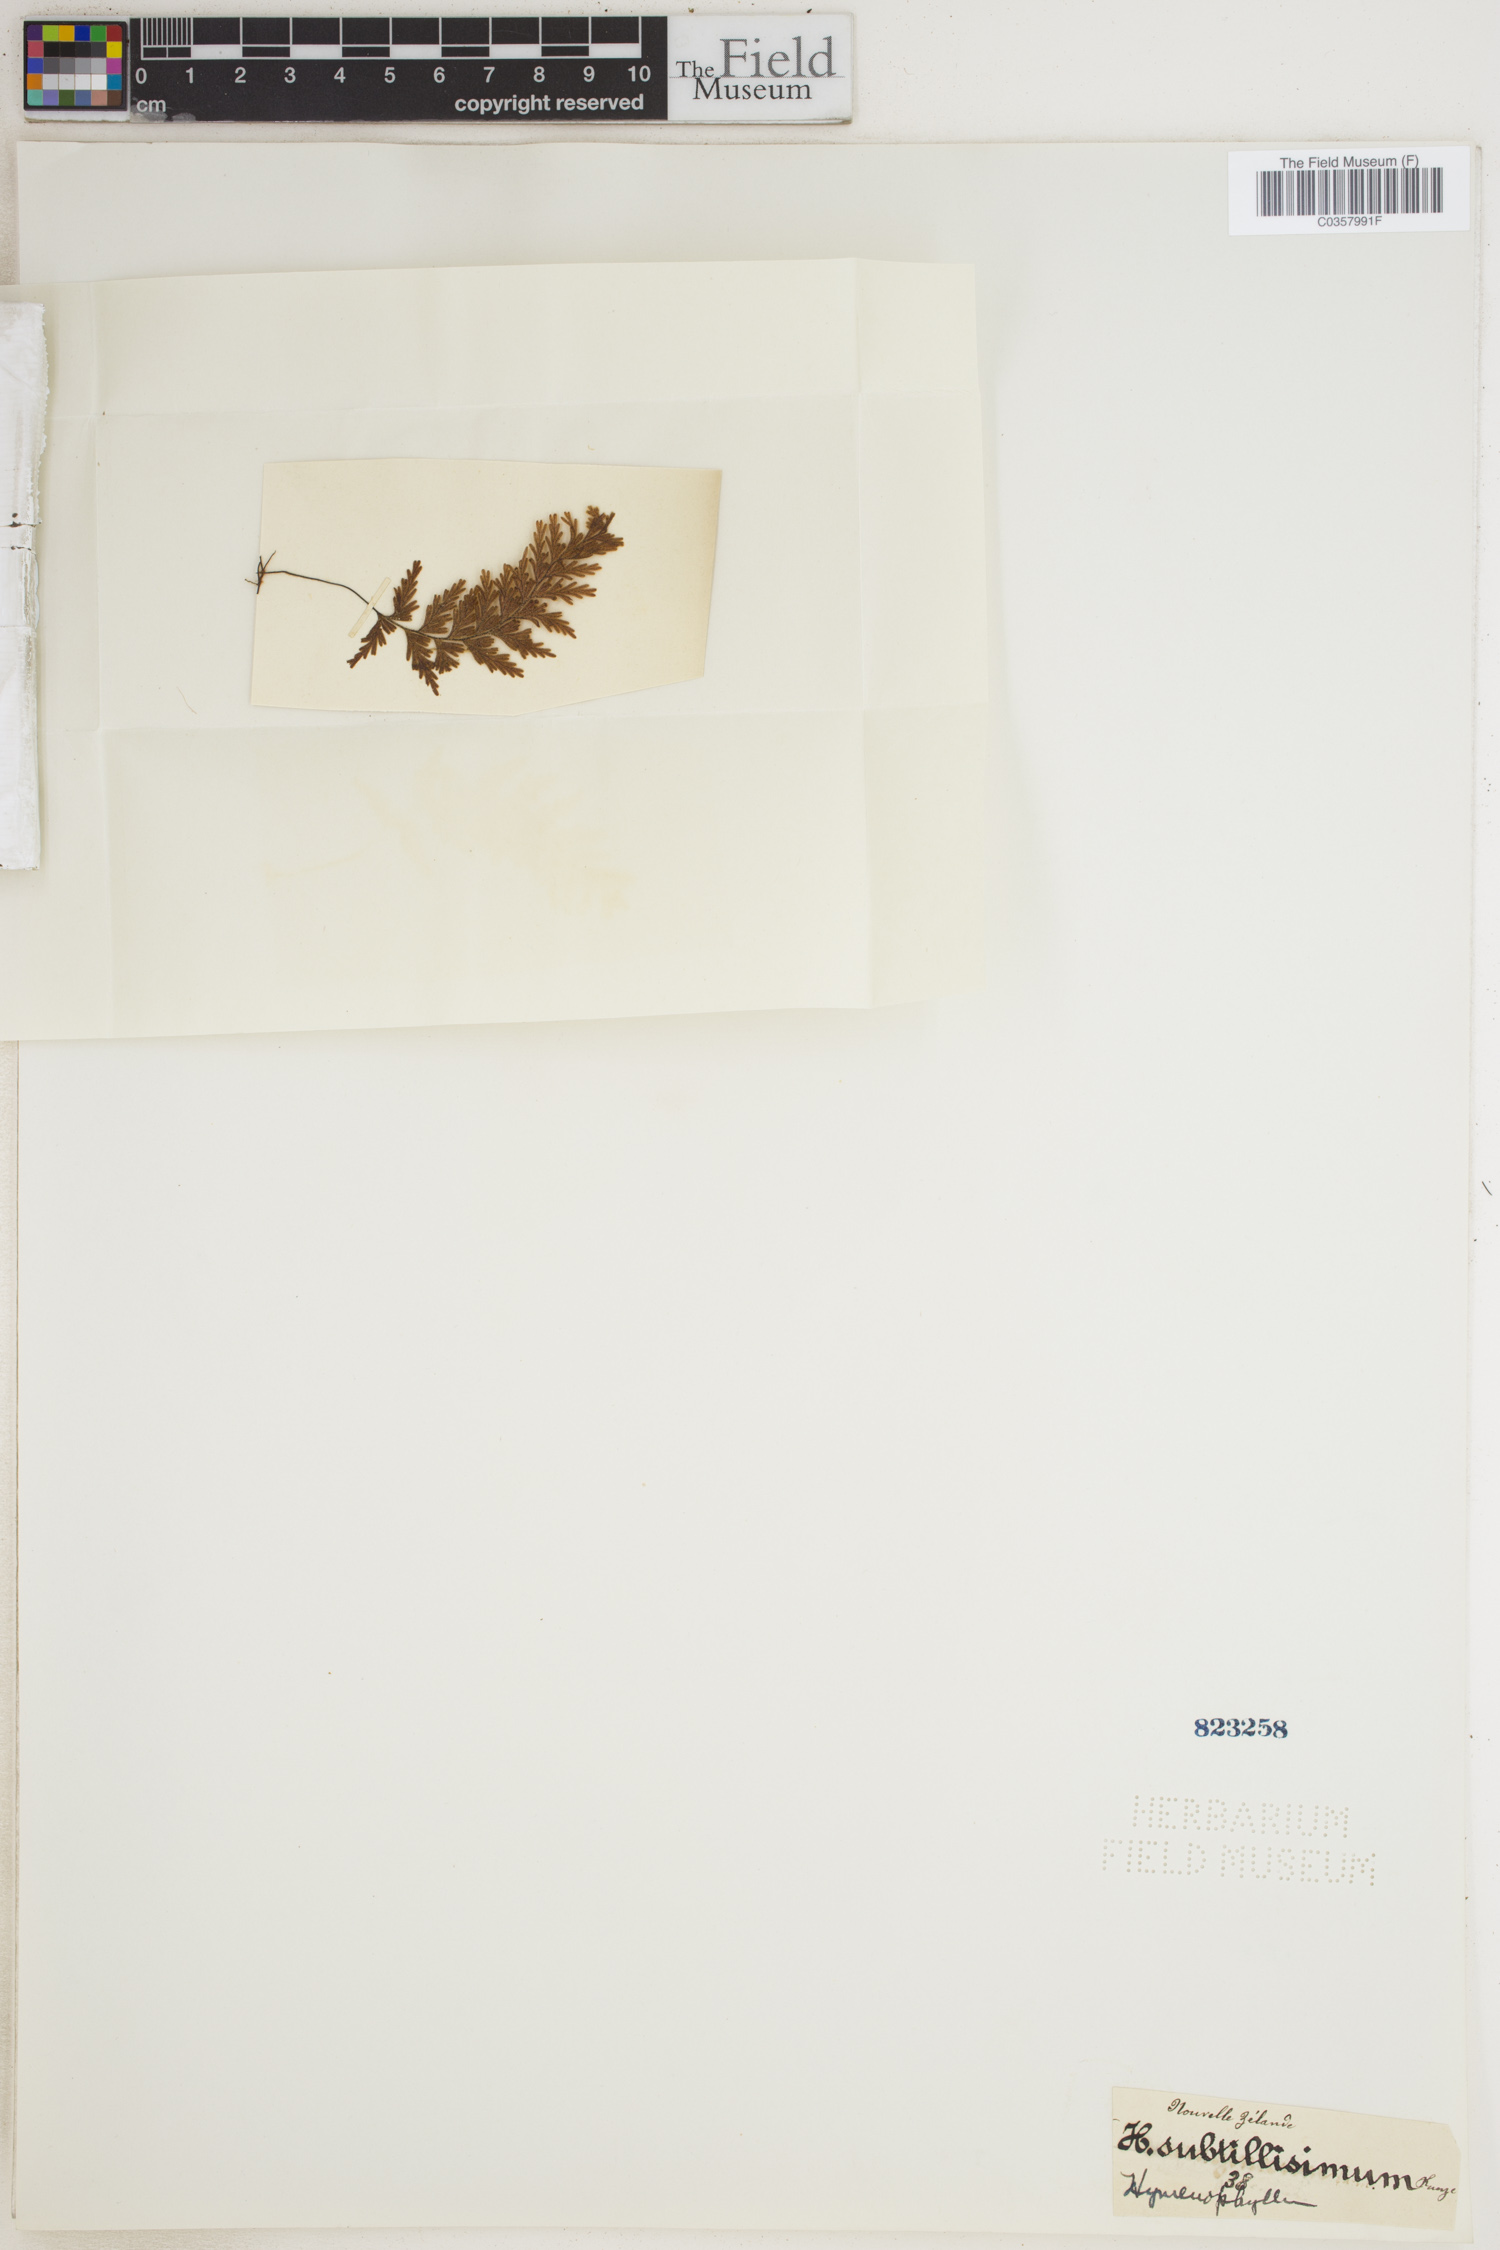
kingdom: Plantae
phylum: Tracheophyta
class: Polypodiopsida
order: Hymenophyllales
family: Hymenophyllaceae
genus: Hymenophyllum
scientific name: Hymenophyllum ferrugineum
